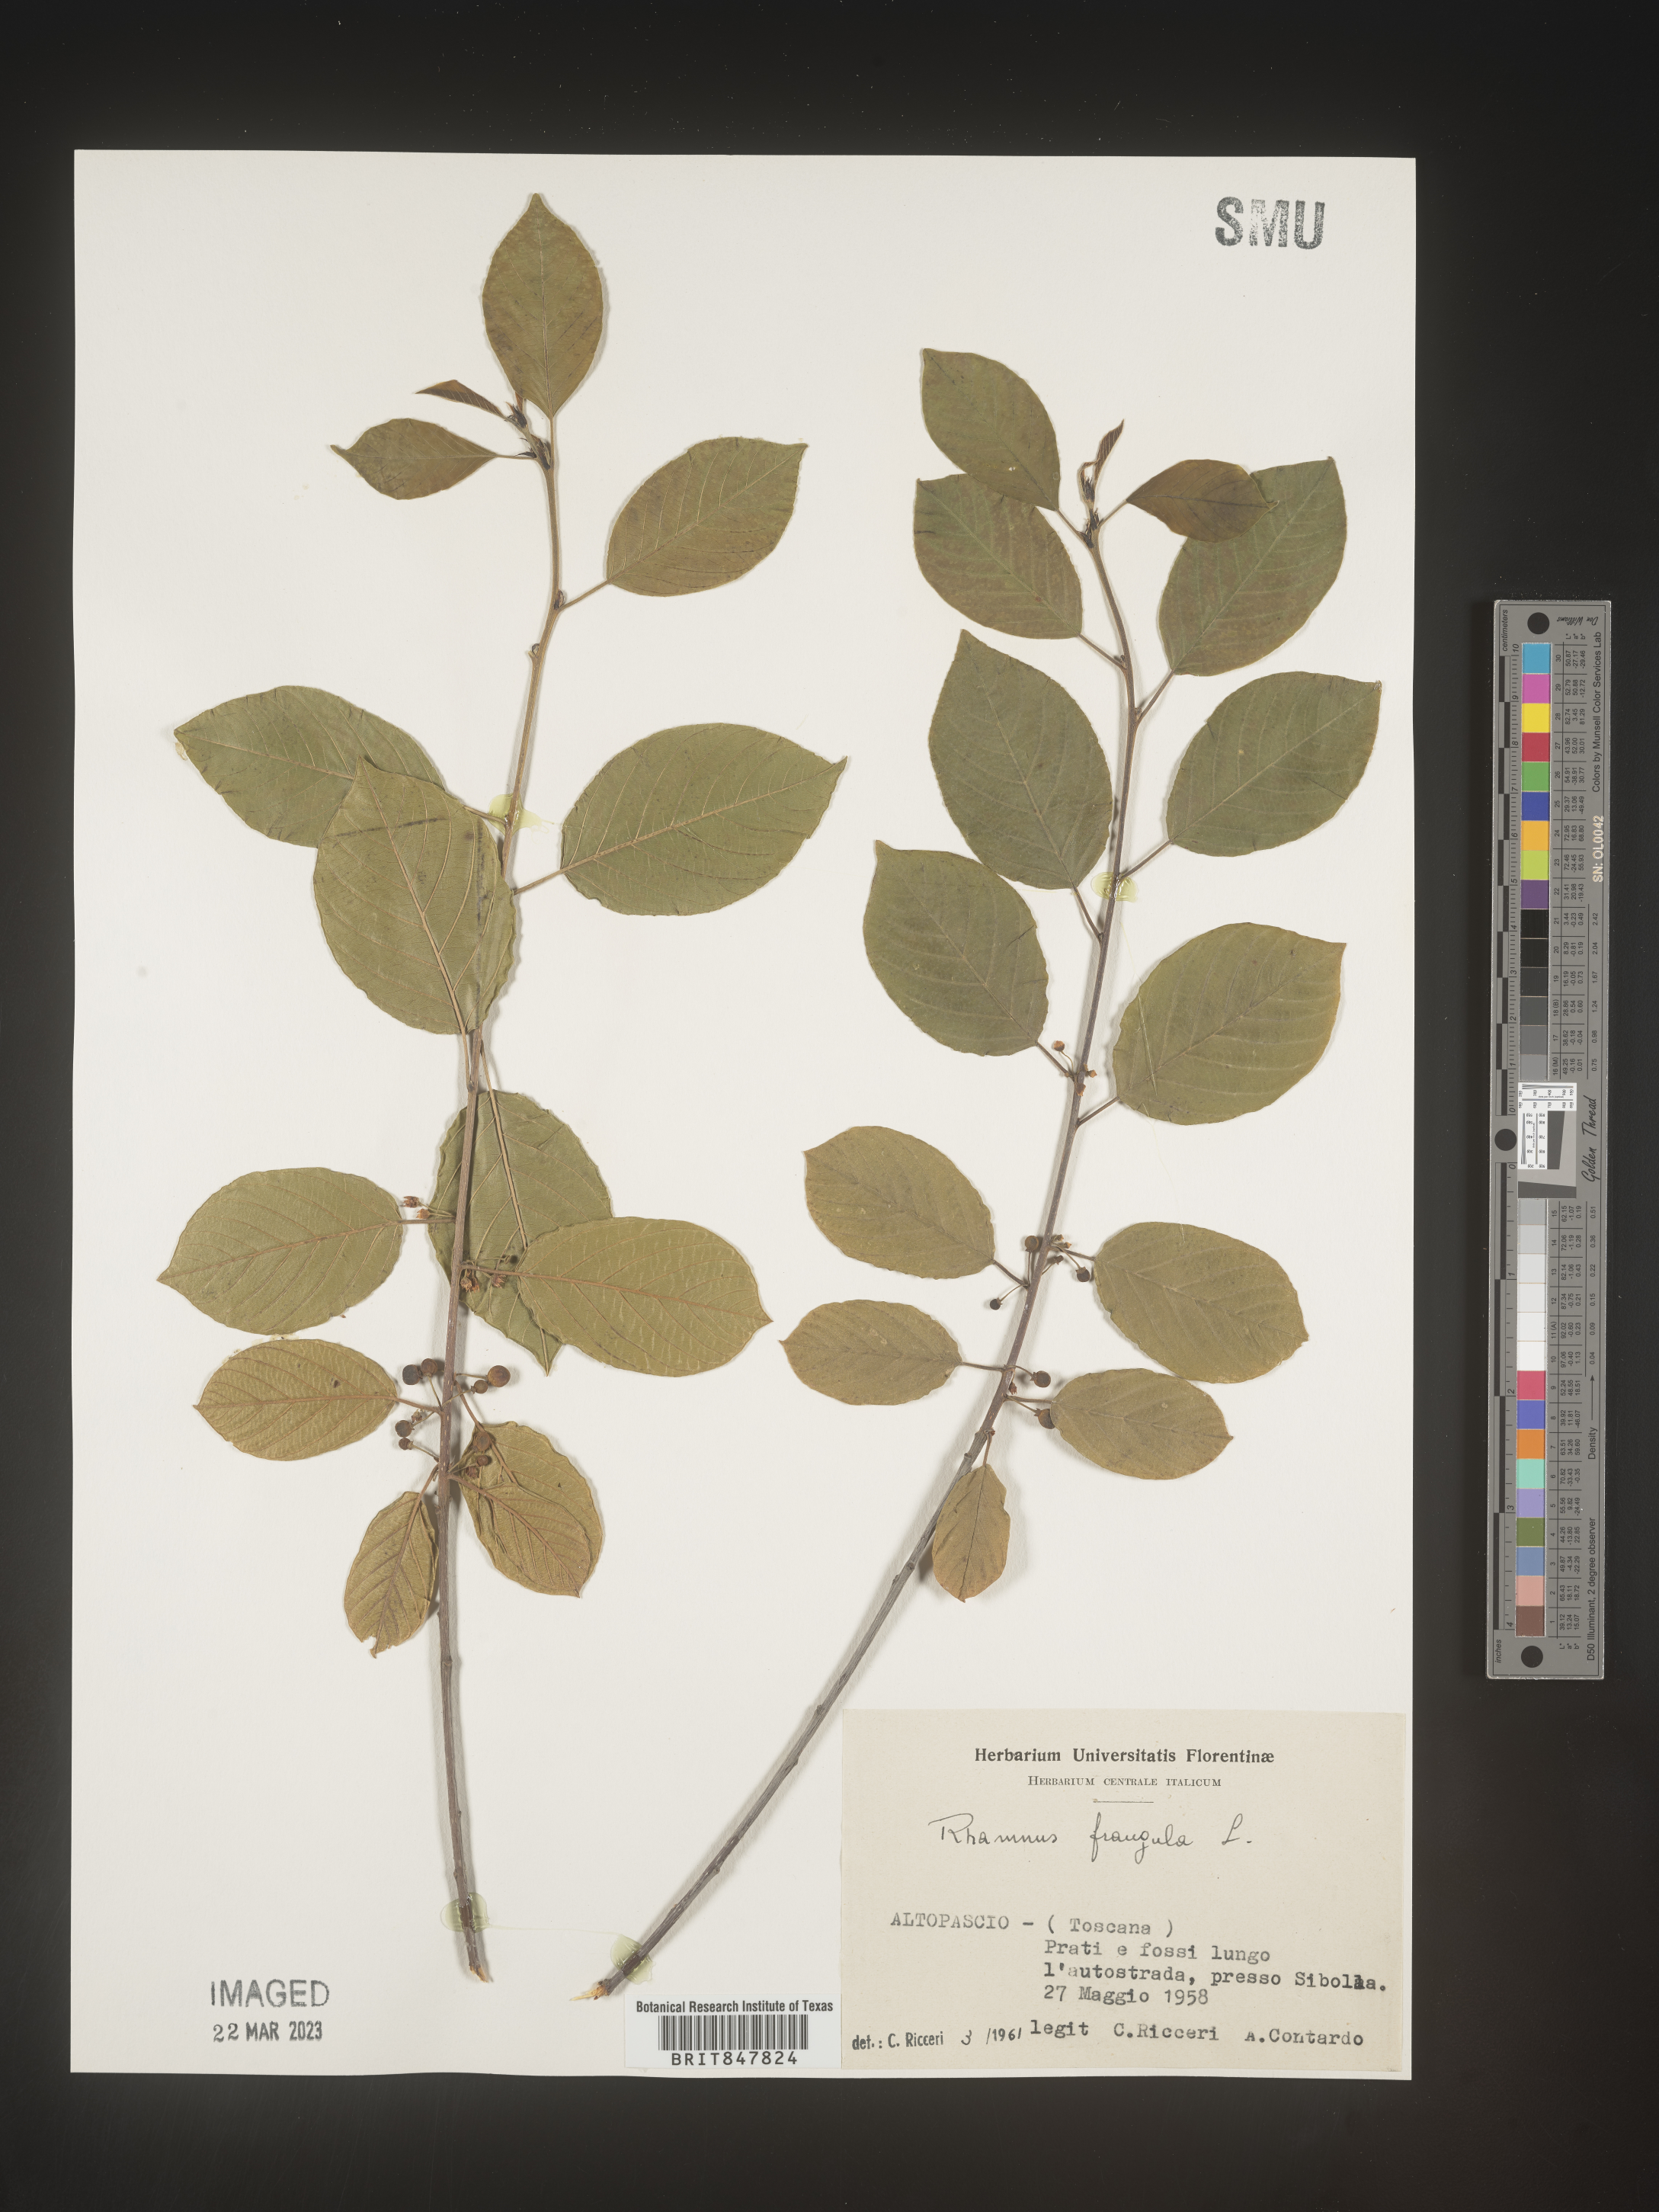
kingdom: Plantae
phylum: Tracheophyta
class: Magnoliopsida
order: Rosales
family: Rhamnaceae
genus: Rhamnus
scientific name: Rhamnus
